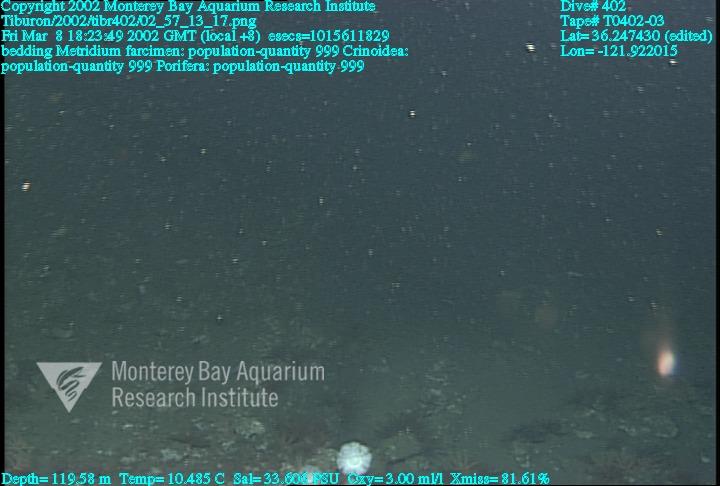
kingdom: Animalia
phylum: Porifera
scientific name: Porifera
